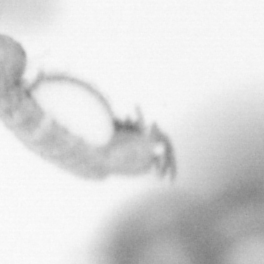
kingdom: Animalia
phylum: Annelida
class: Polychaeta
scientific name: Polychaeta
